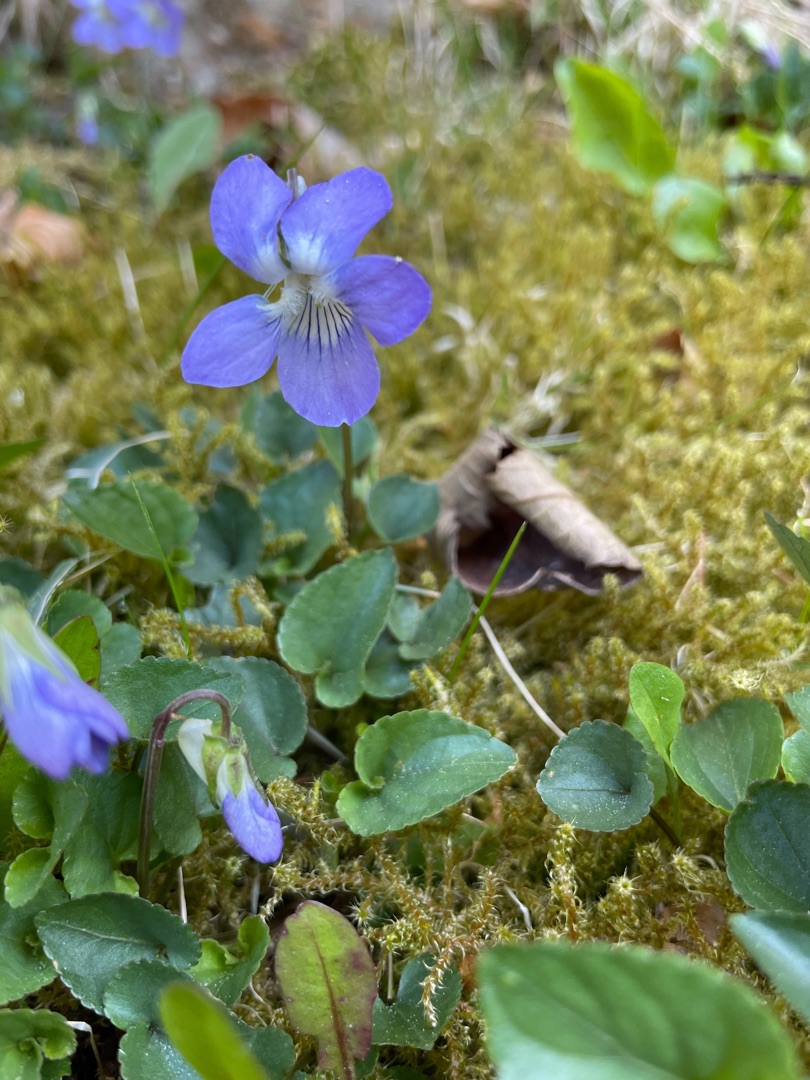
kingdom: Plantae
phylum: Tracheophyta
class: Magnoliopsida
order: Malpighiales
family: Violaceae
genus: Viola
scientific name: Viola canina
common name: Hunde-viol
